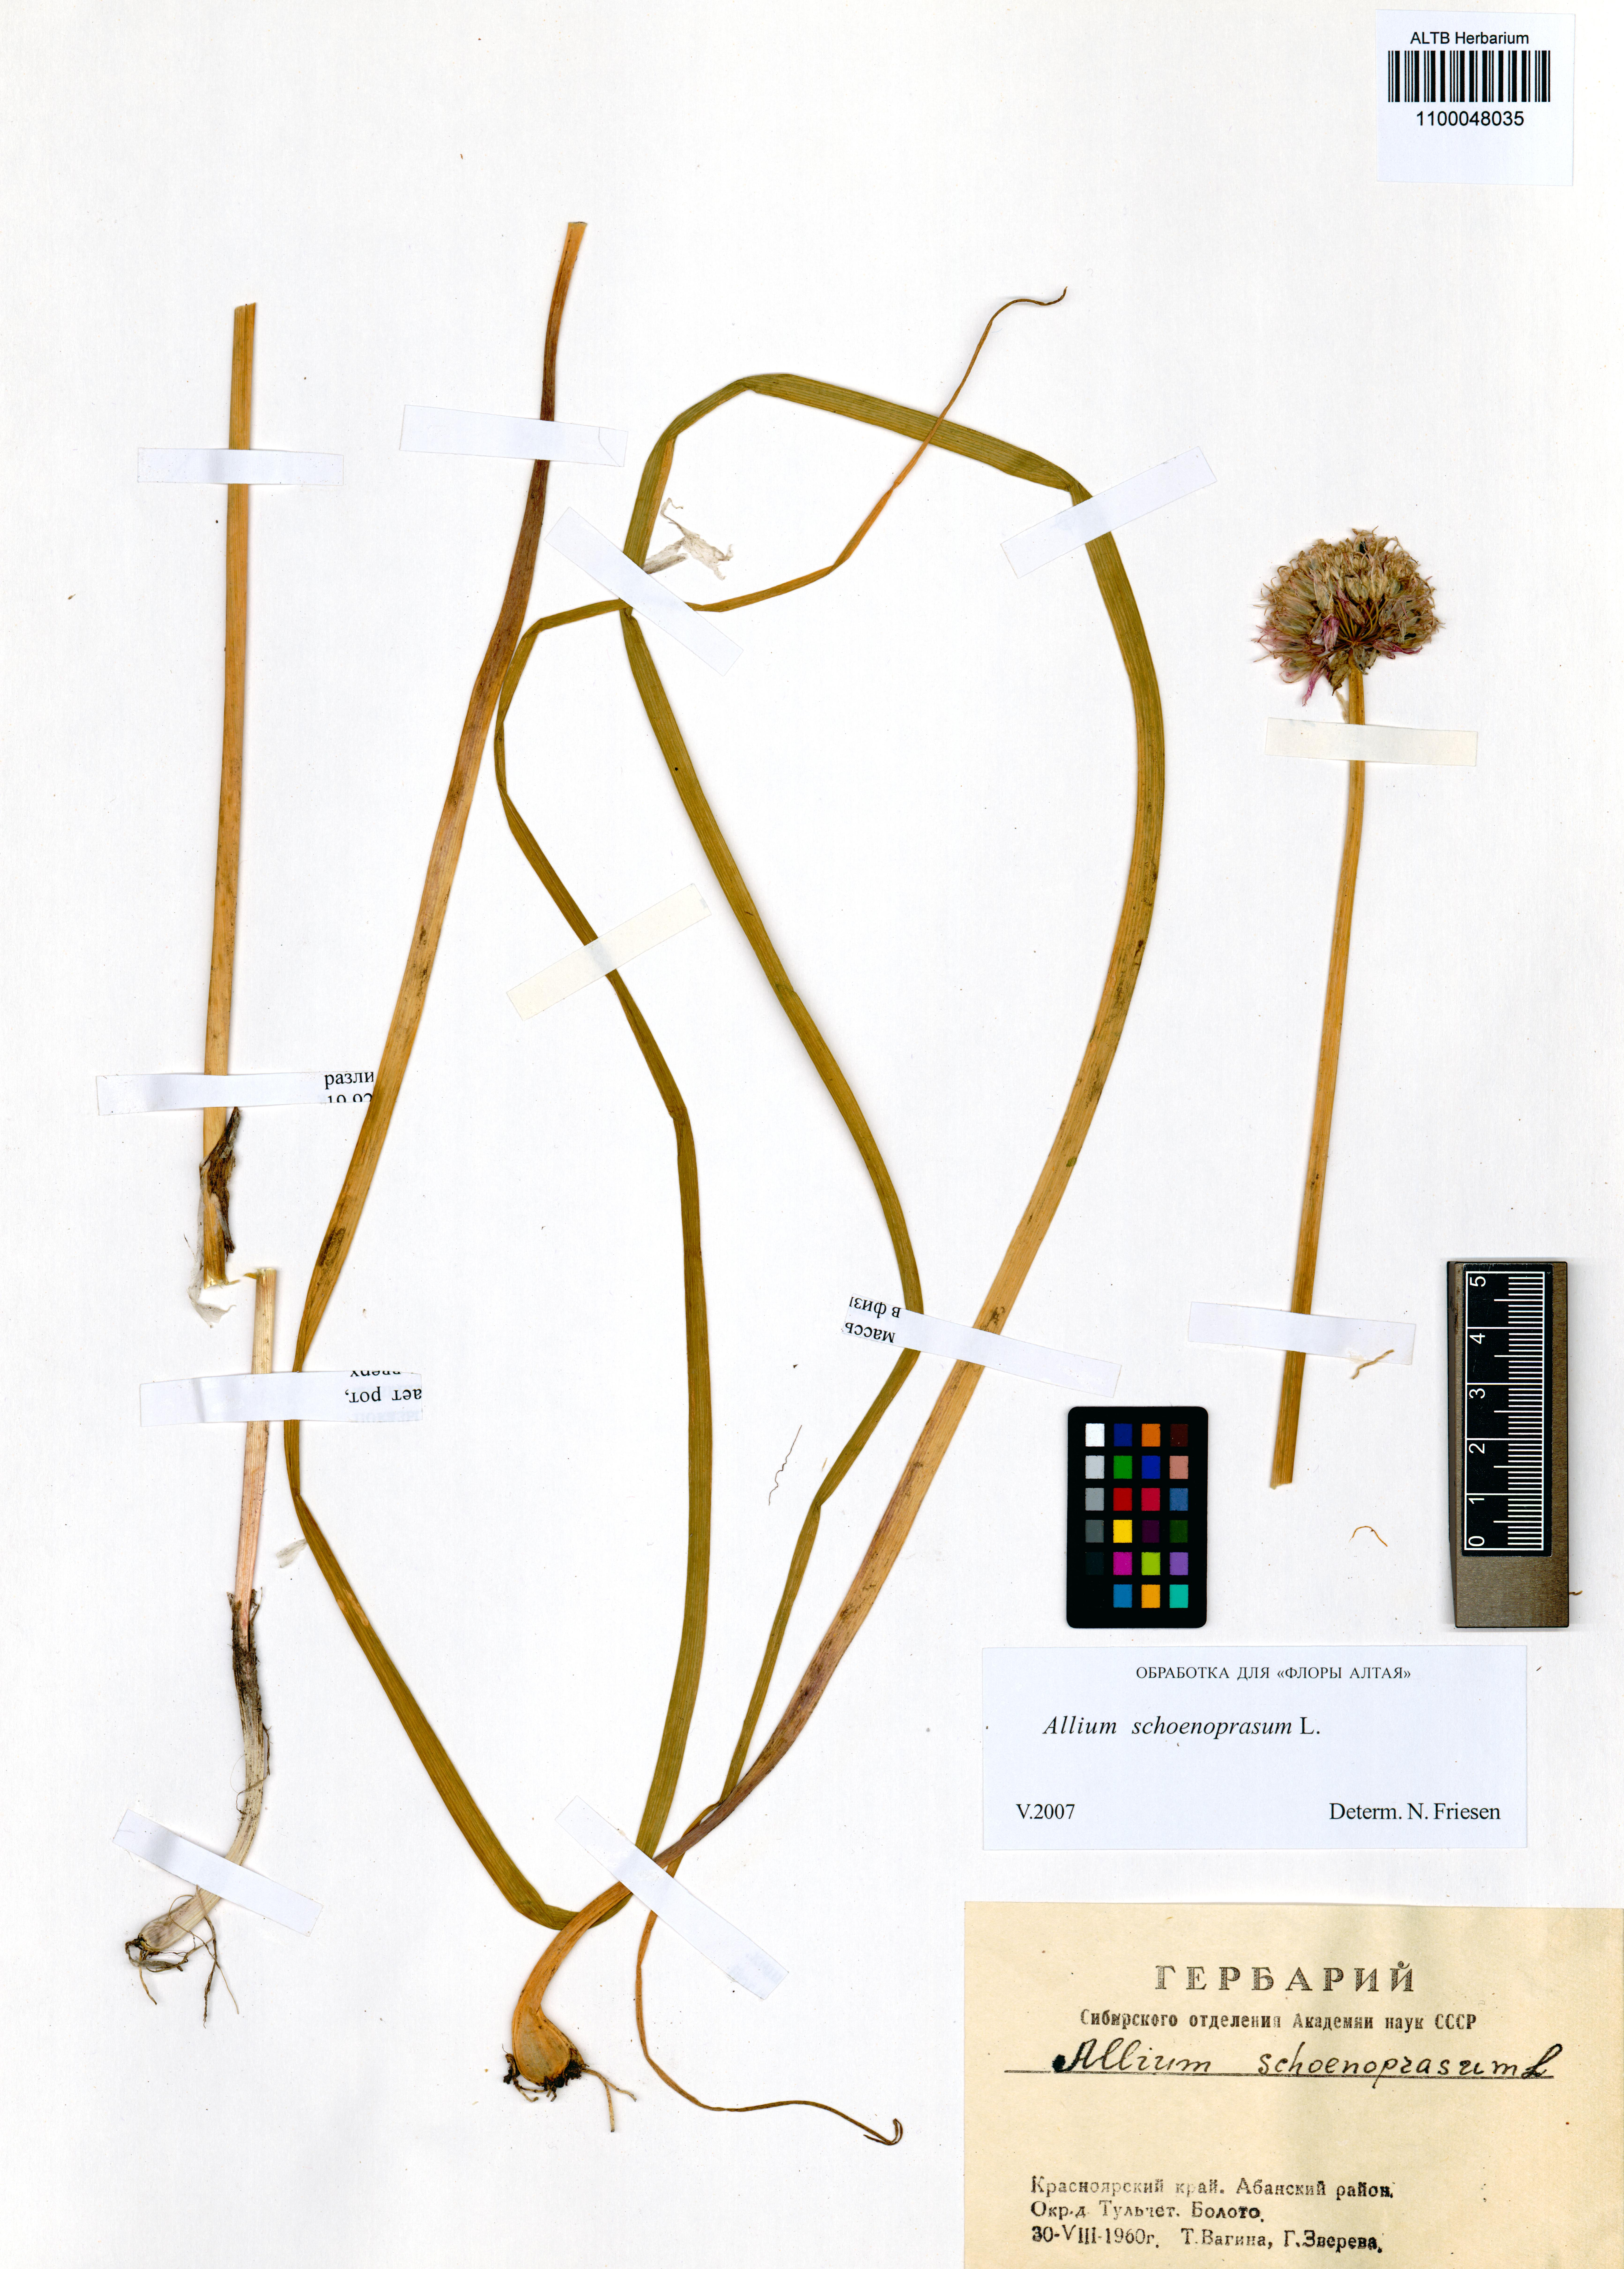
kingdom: Plantae
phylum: Tracheophyta
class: Liliopsida
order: Asparagales
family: Amaryllidaceae
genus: Allium
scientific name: Allium schoenoprasum
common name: Chives
